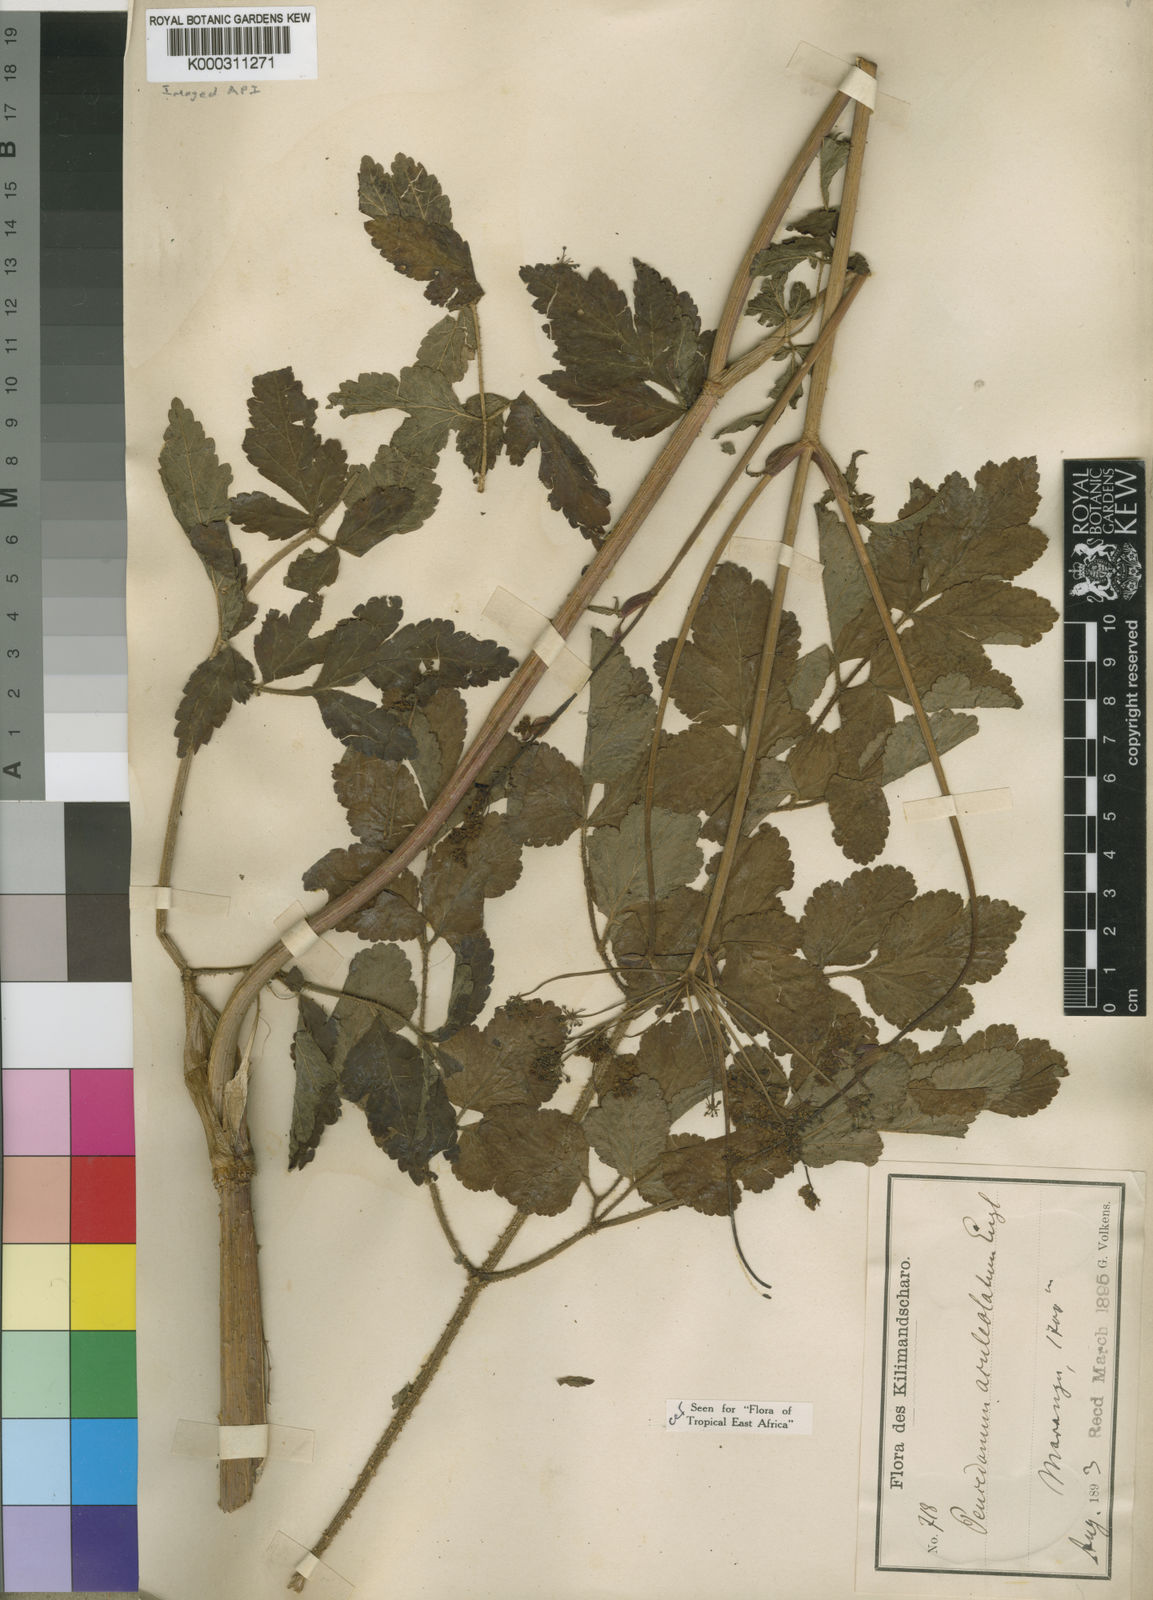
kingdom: Plantae
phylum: Tracheophyta
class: Magnoliopsida
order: Apiales
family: Apiaceae
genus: Afroligusticum
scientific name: Afroligusticum aculeolatum
